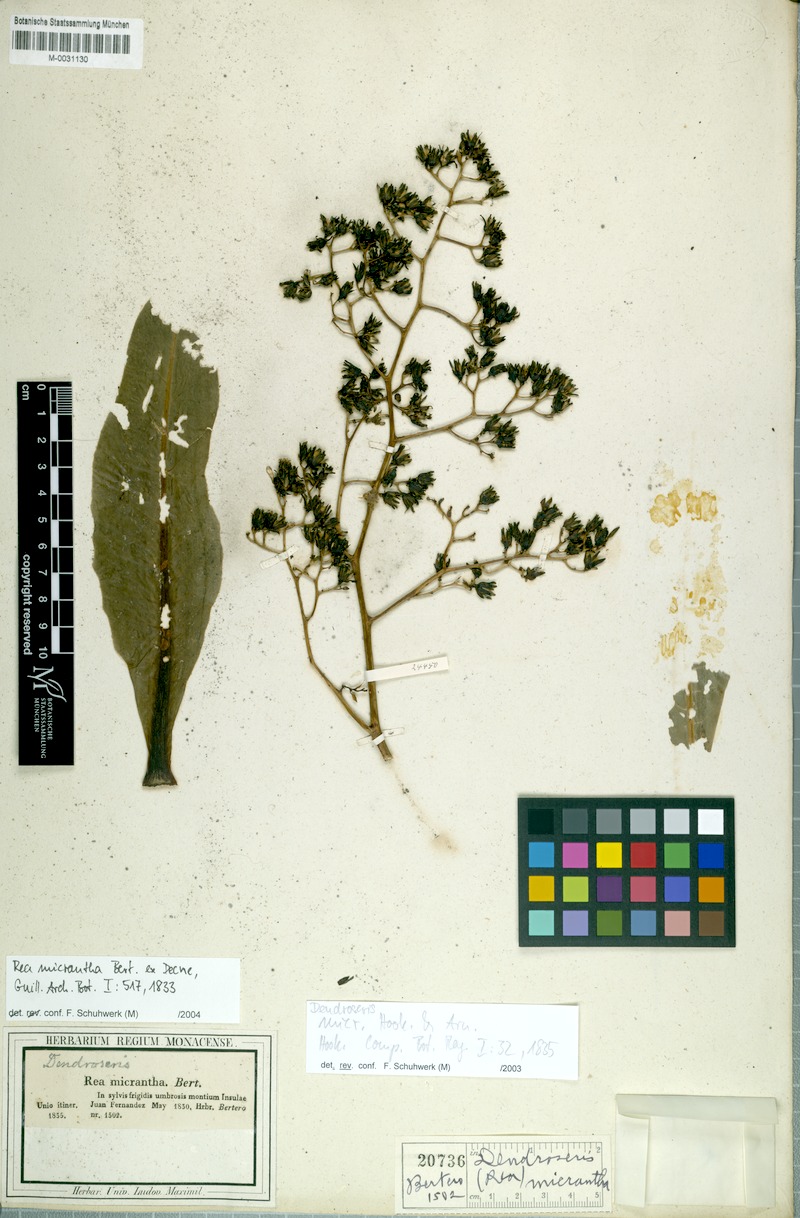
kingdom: Plantae
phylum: Tracheophyta
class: Magnoliopsida
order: Asterales
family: Asteraceae
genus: Sonchus
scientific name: Sonchus micranthus
